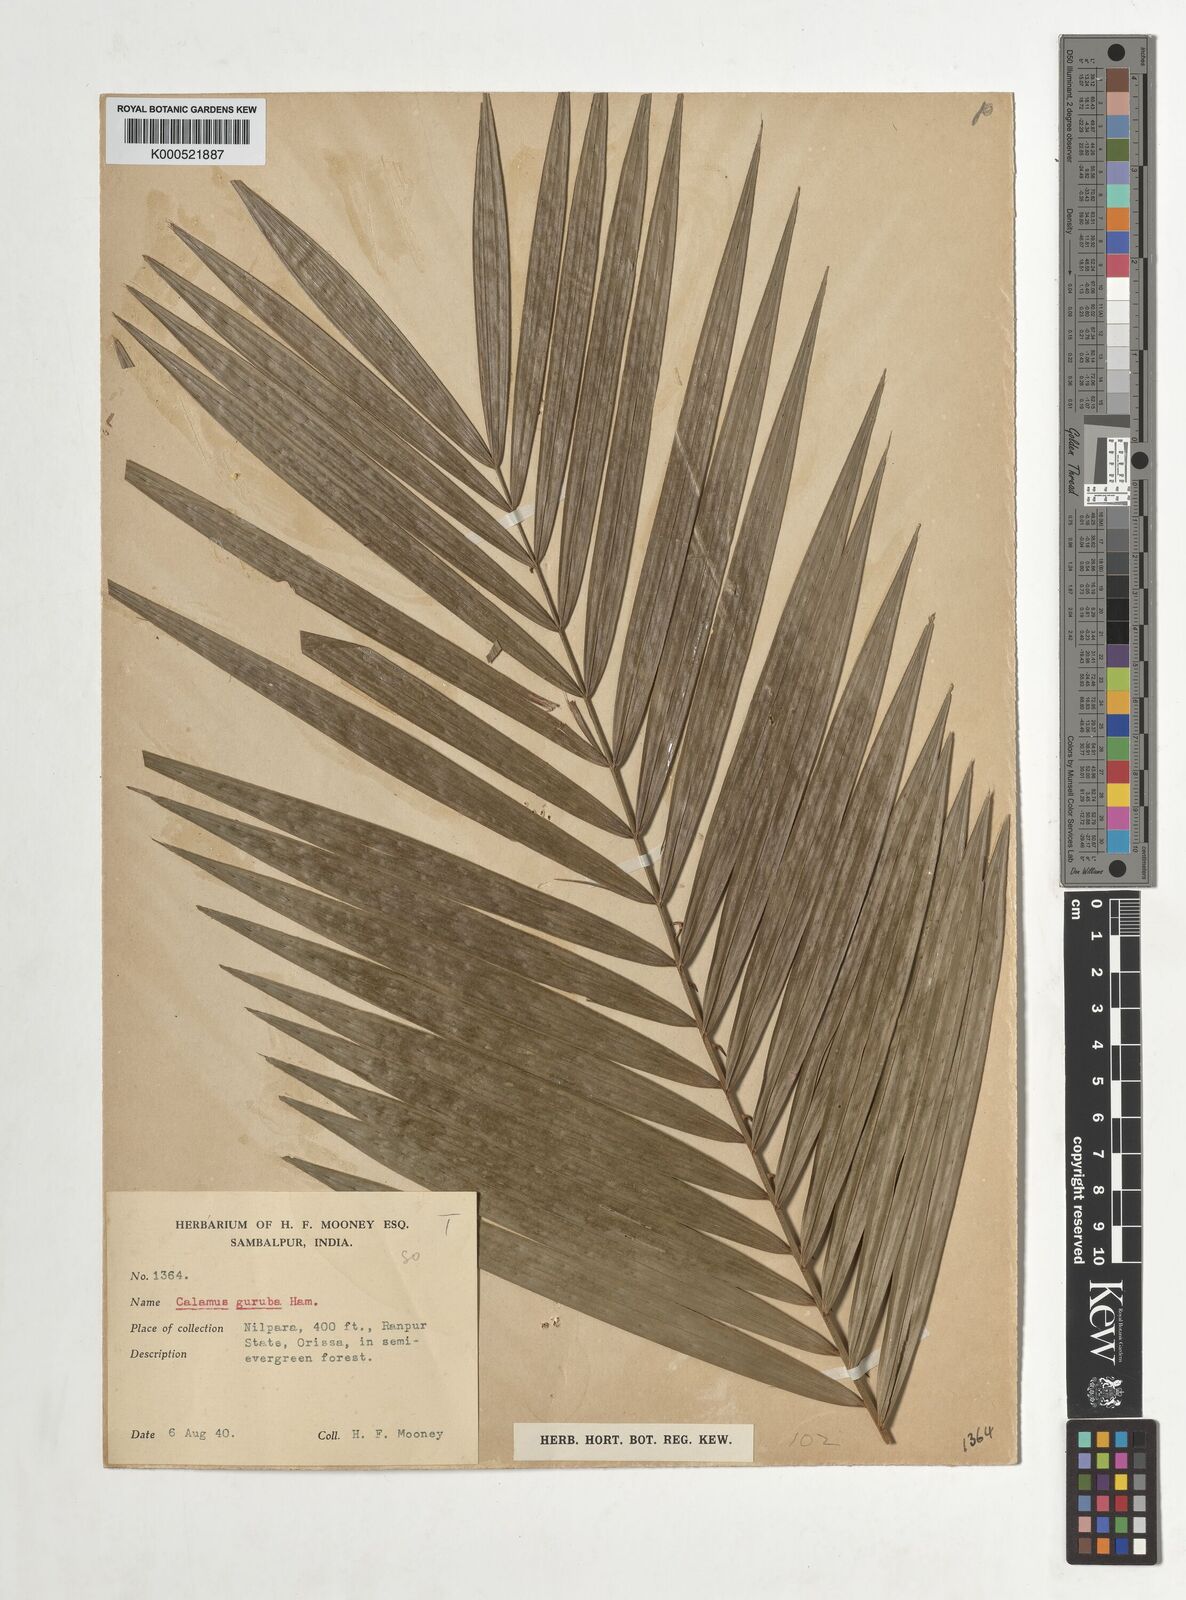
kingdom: Plantae
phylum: Tracheophyta
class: Liliopsida
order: Arecales
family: Arecaceae
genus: Calamus
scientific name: Calamus
